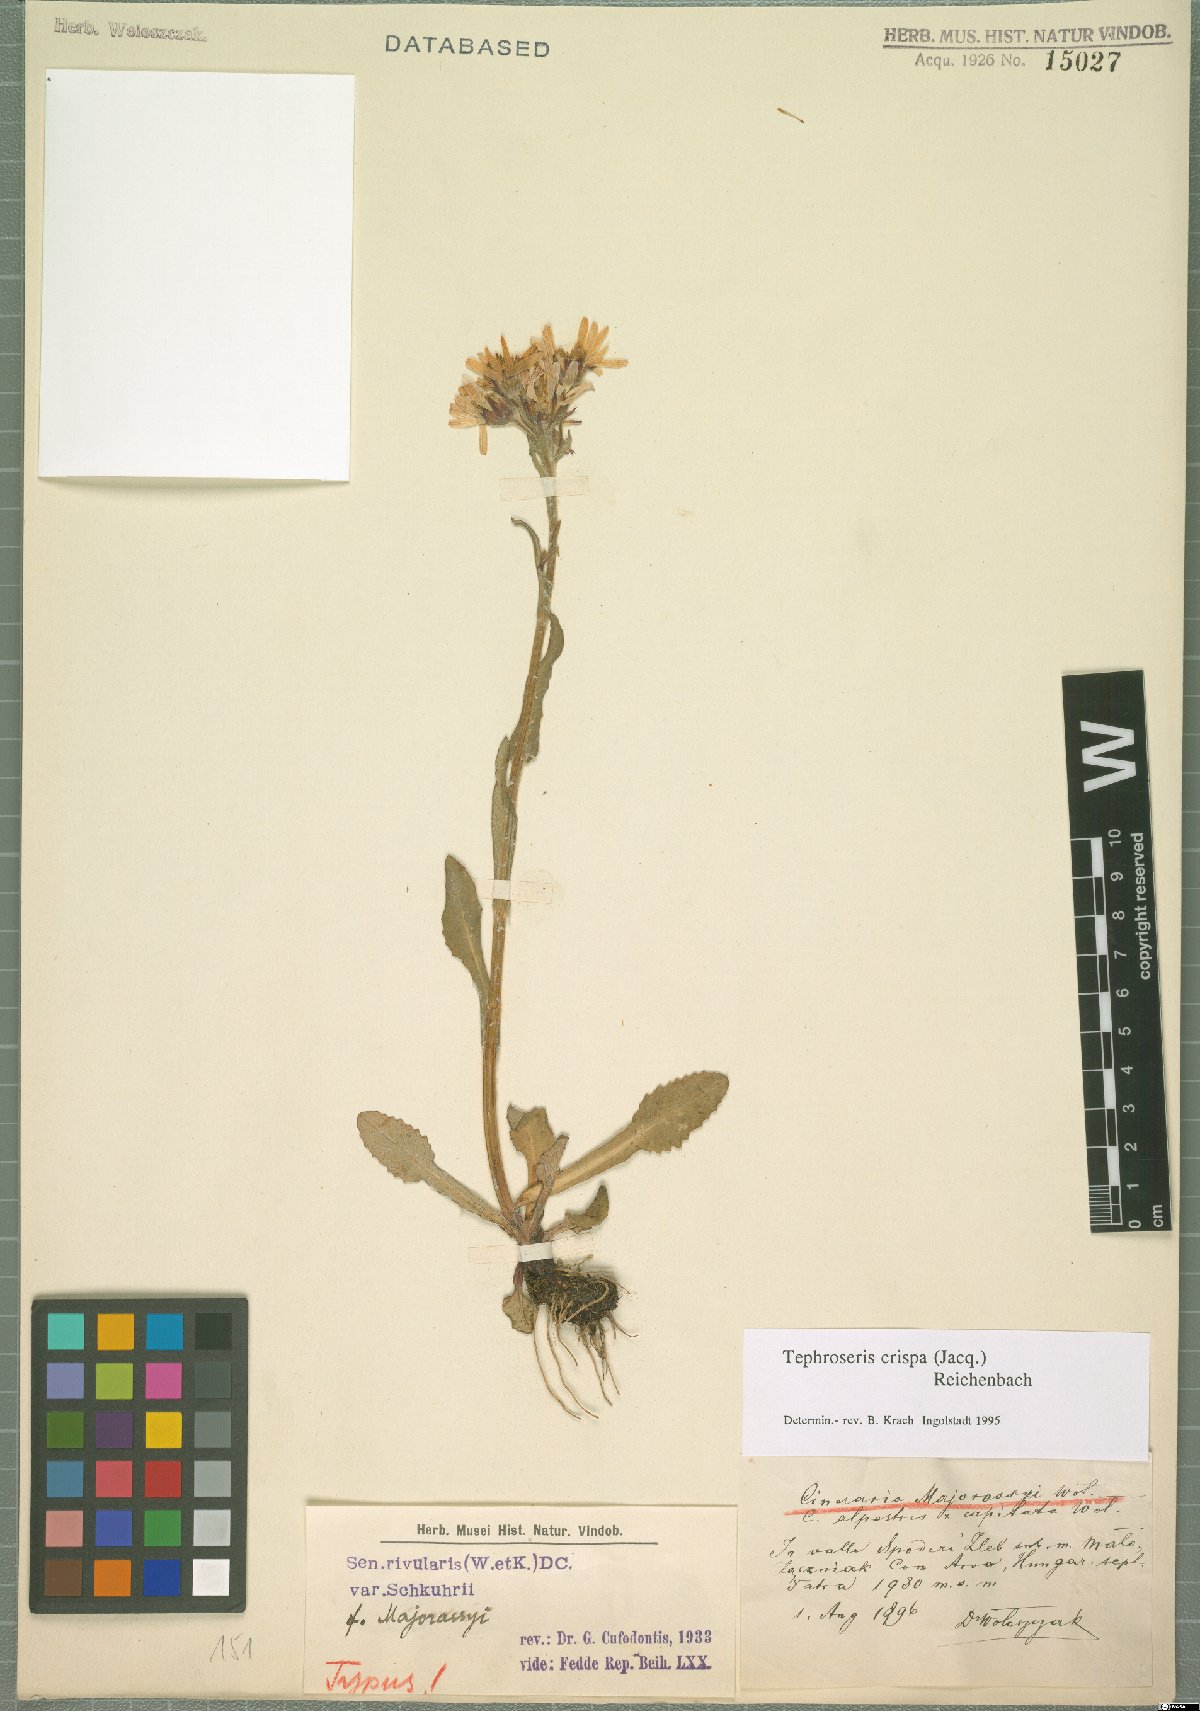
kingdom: Plantae
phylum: Tracheophyta
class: Magnoliopsida
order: Asterales
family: Asteraceae
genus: Tephroseris
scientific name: Tephroseris crispa
